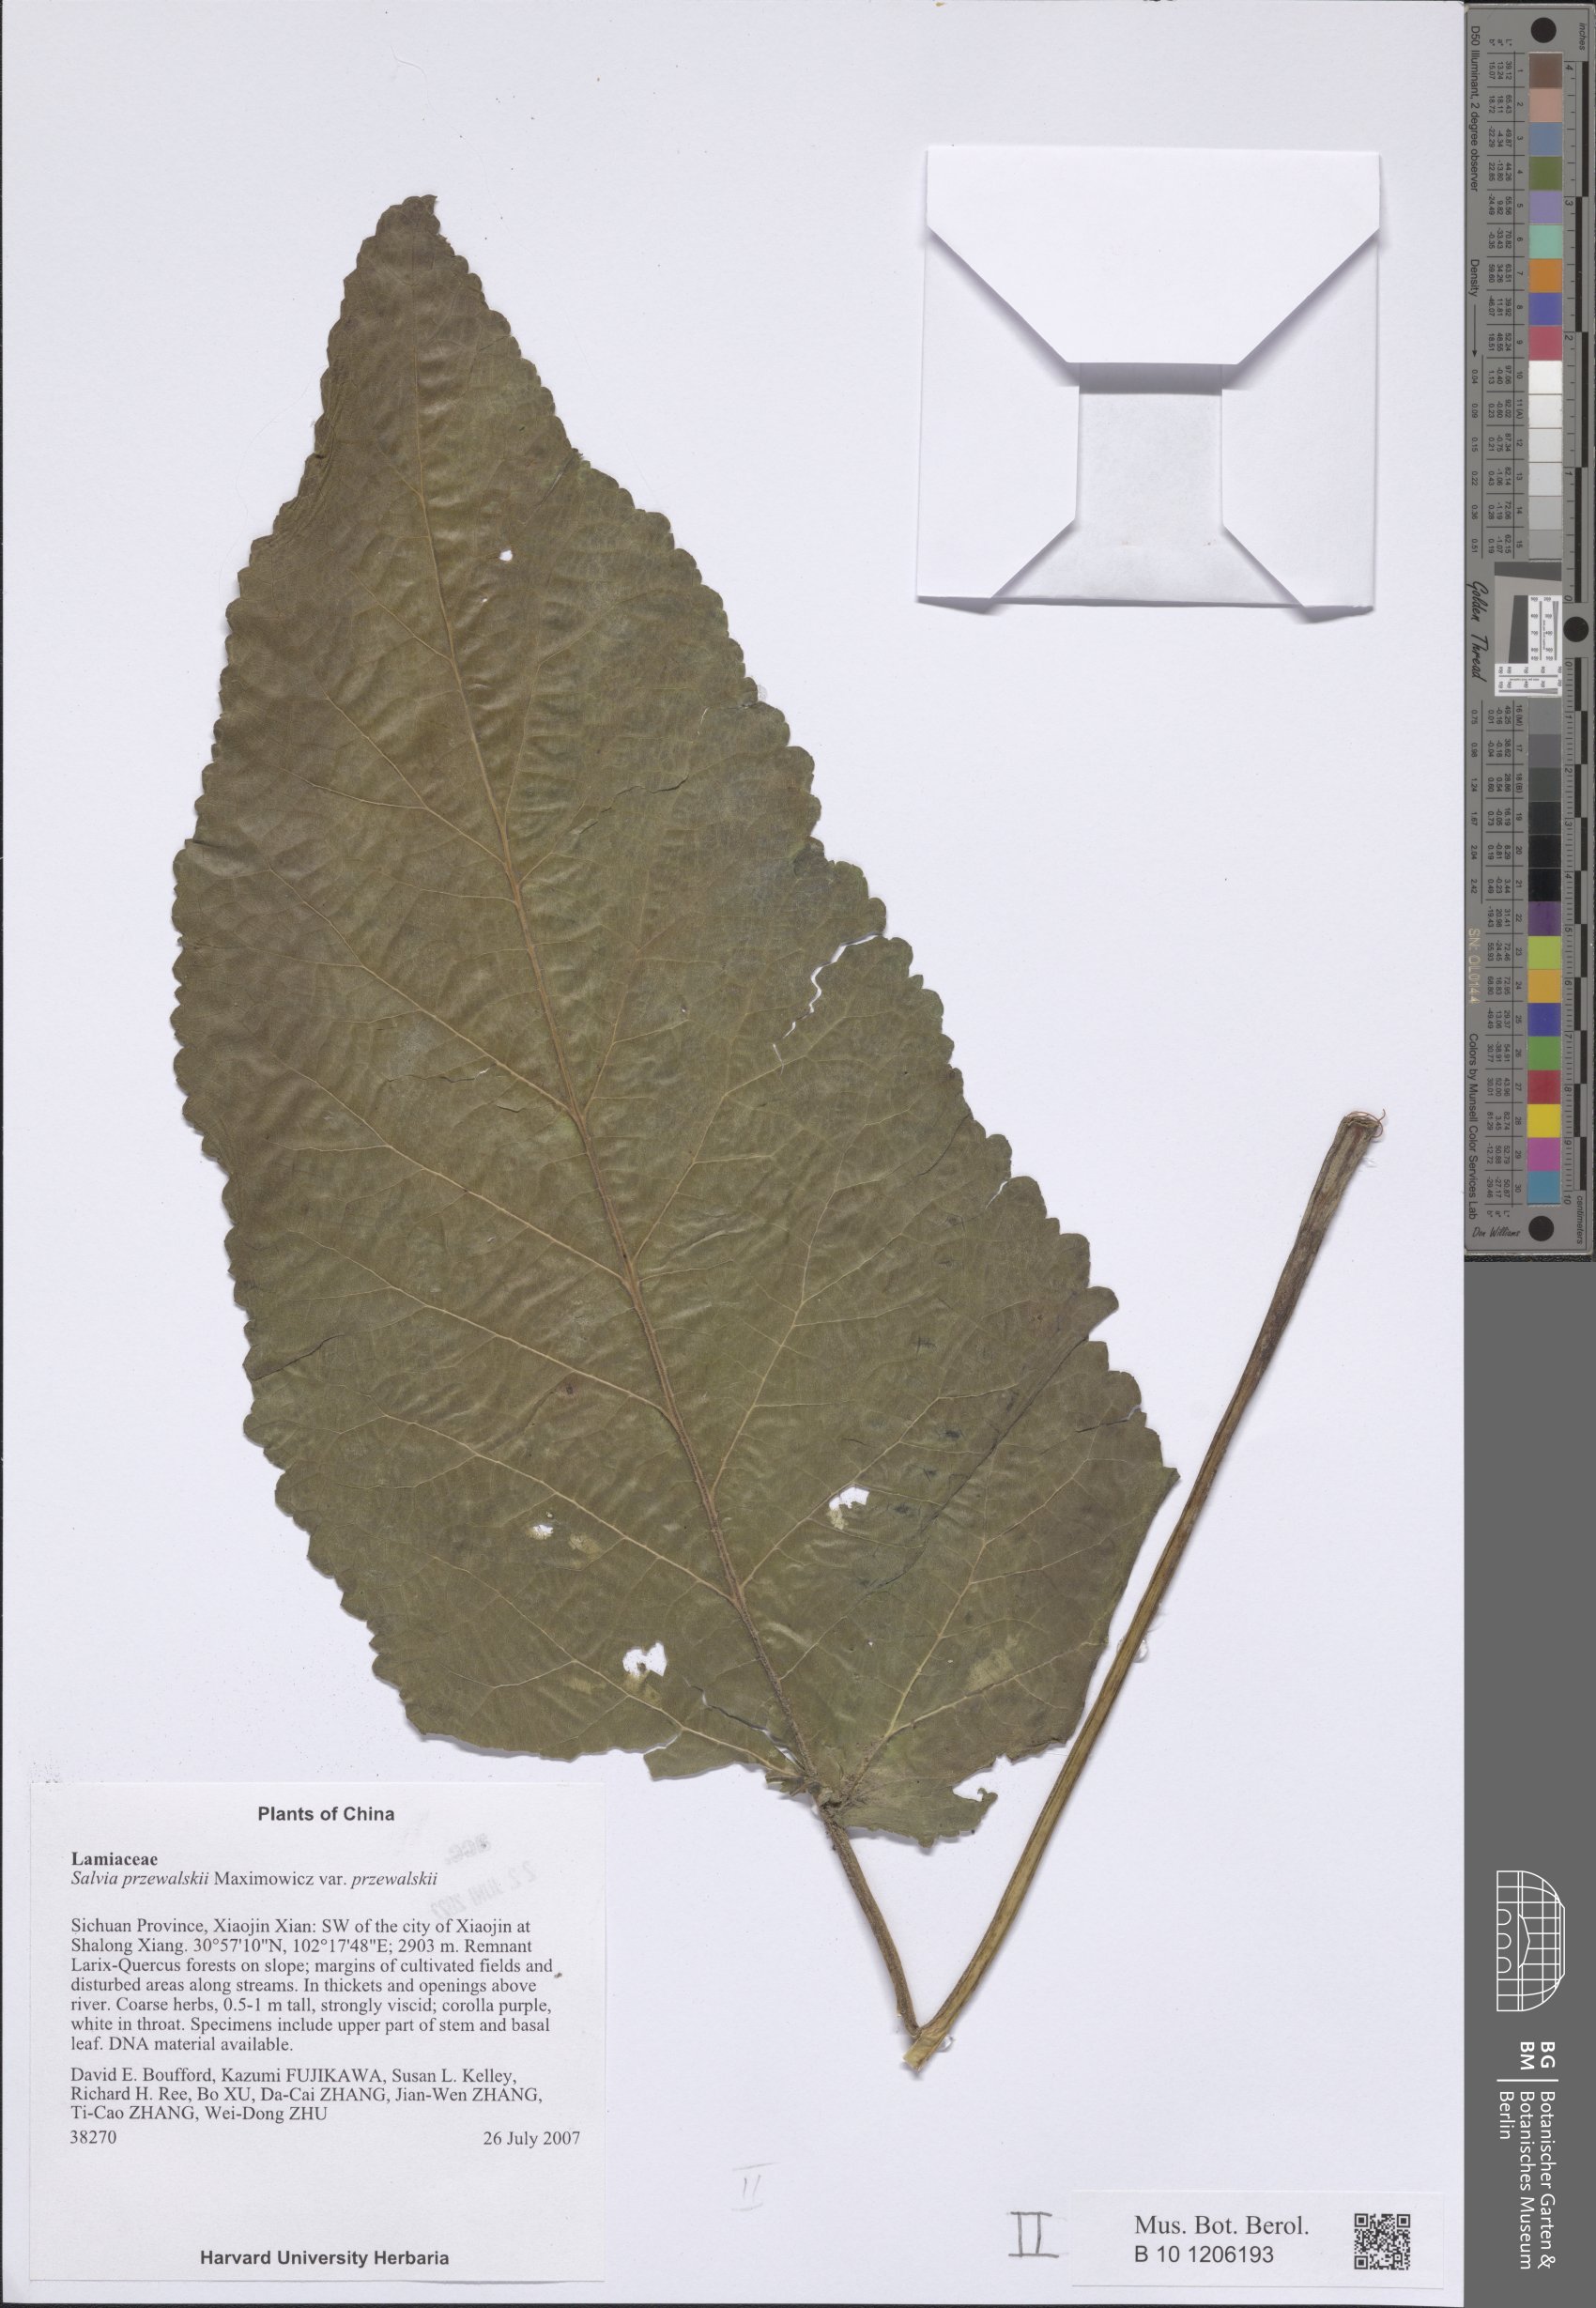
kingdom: Plantae
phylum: Tracheophyta
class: Magnoliopsida
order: Lamiales
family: Lamiaceae
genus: Salvia
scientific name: Salvia przewalskii
